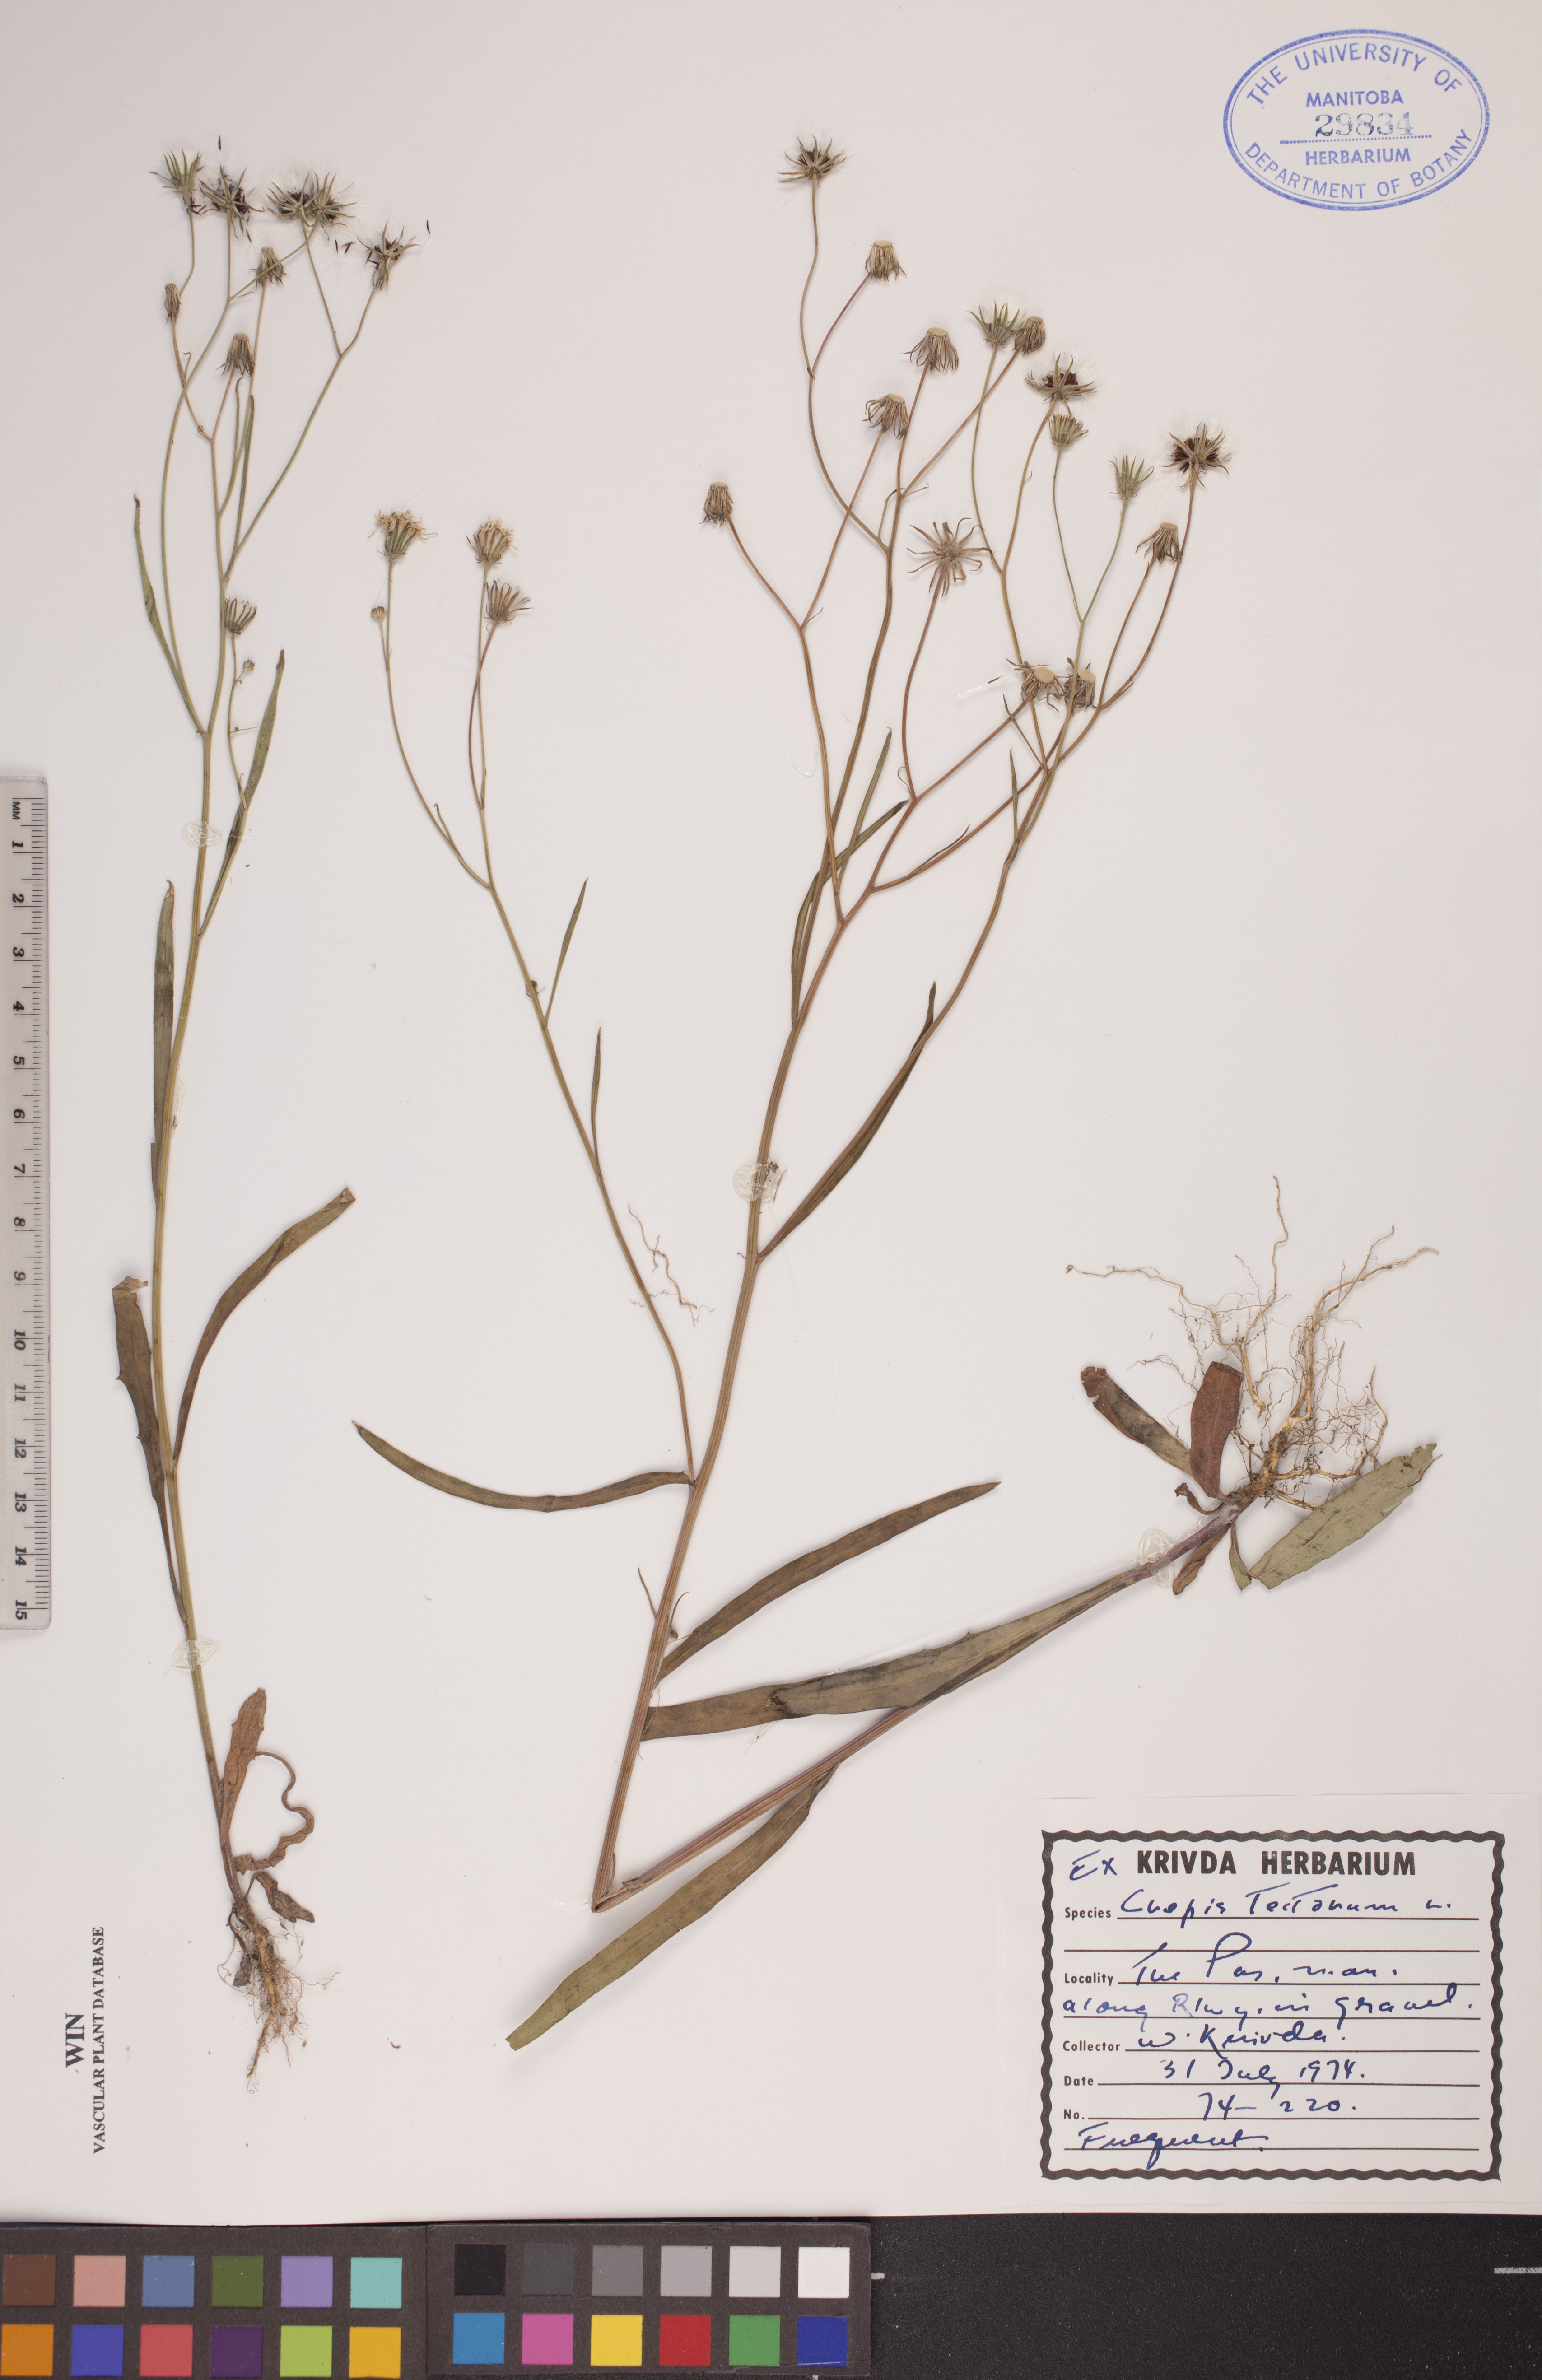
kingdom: Plantae
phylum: Tracheophyta
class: Magnoliopsida
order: Asterales
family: Asteraceae
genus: Crepis
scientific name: Crepis tectorum
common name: Narrow-leaved hawk's-beard
